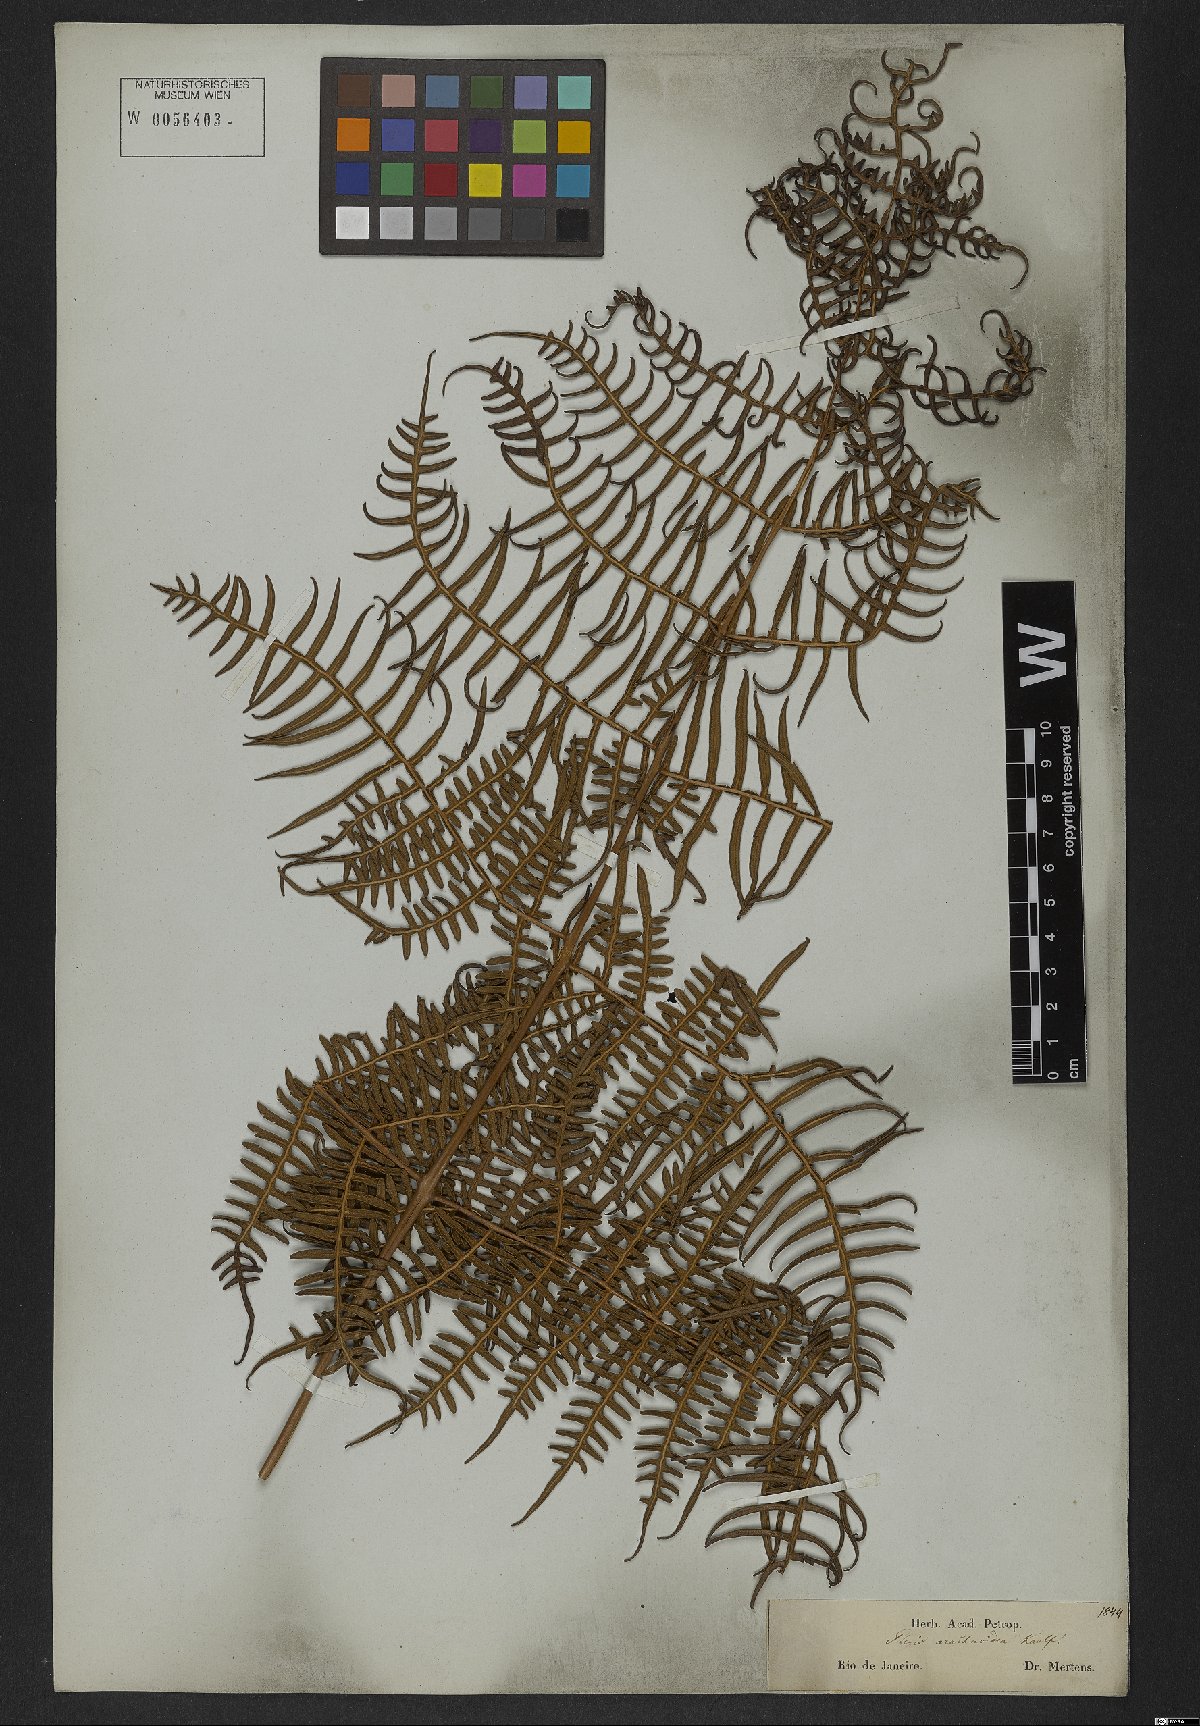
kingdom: Plantae
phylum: Tracheophyta
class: Polypodiopsida
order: Polypodiales
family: Dennstaedtiaceae
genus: Pteridium
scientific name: Pteridium esculentum
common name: Bracken fern
